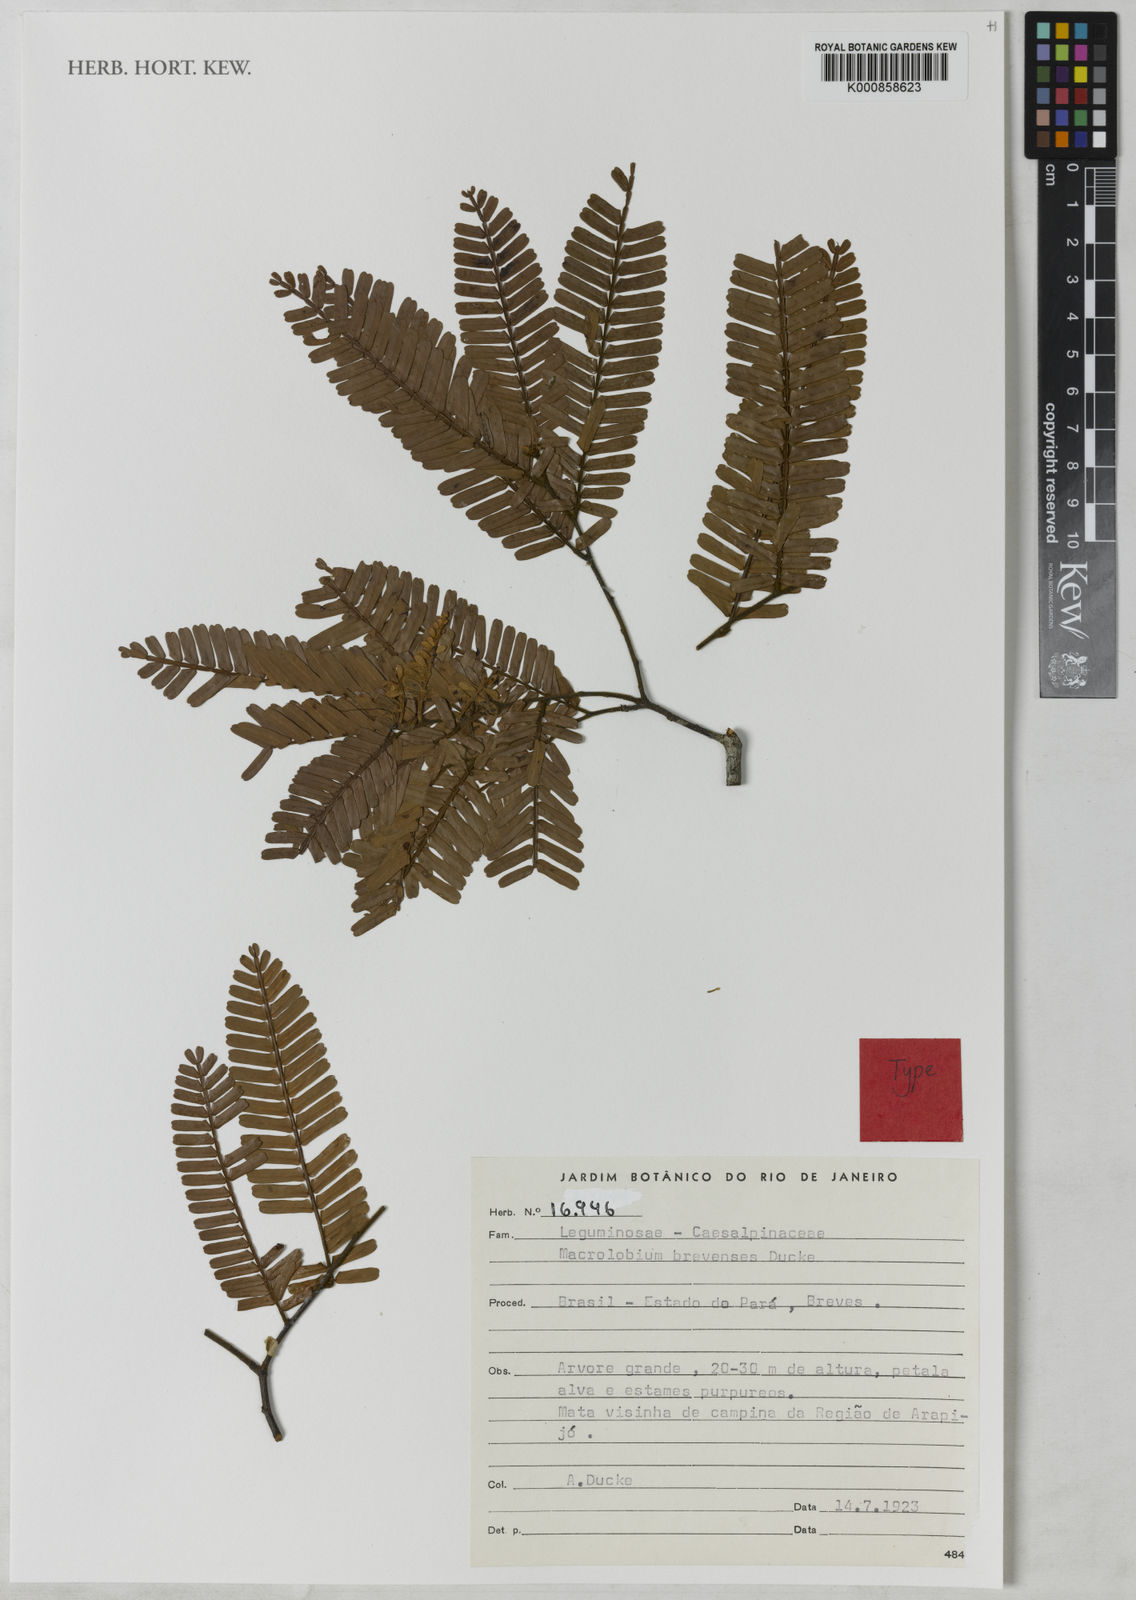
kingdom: Plantae
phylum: Tracheophyta
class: Magnoliopsida
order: Fabales
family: Fabaceae
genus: Macrolobium
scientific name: Macrolobium brevense
